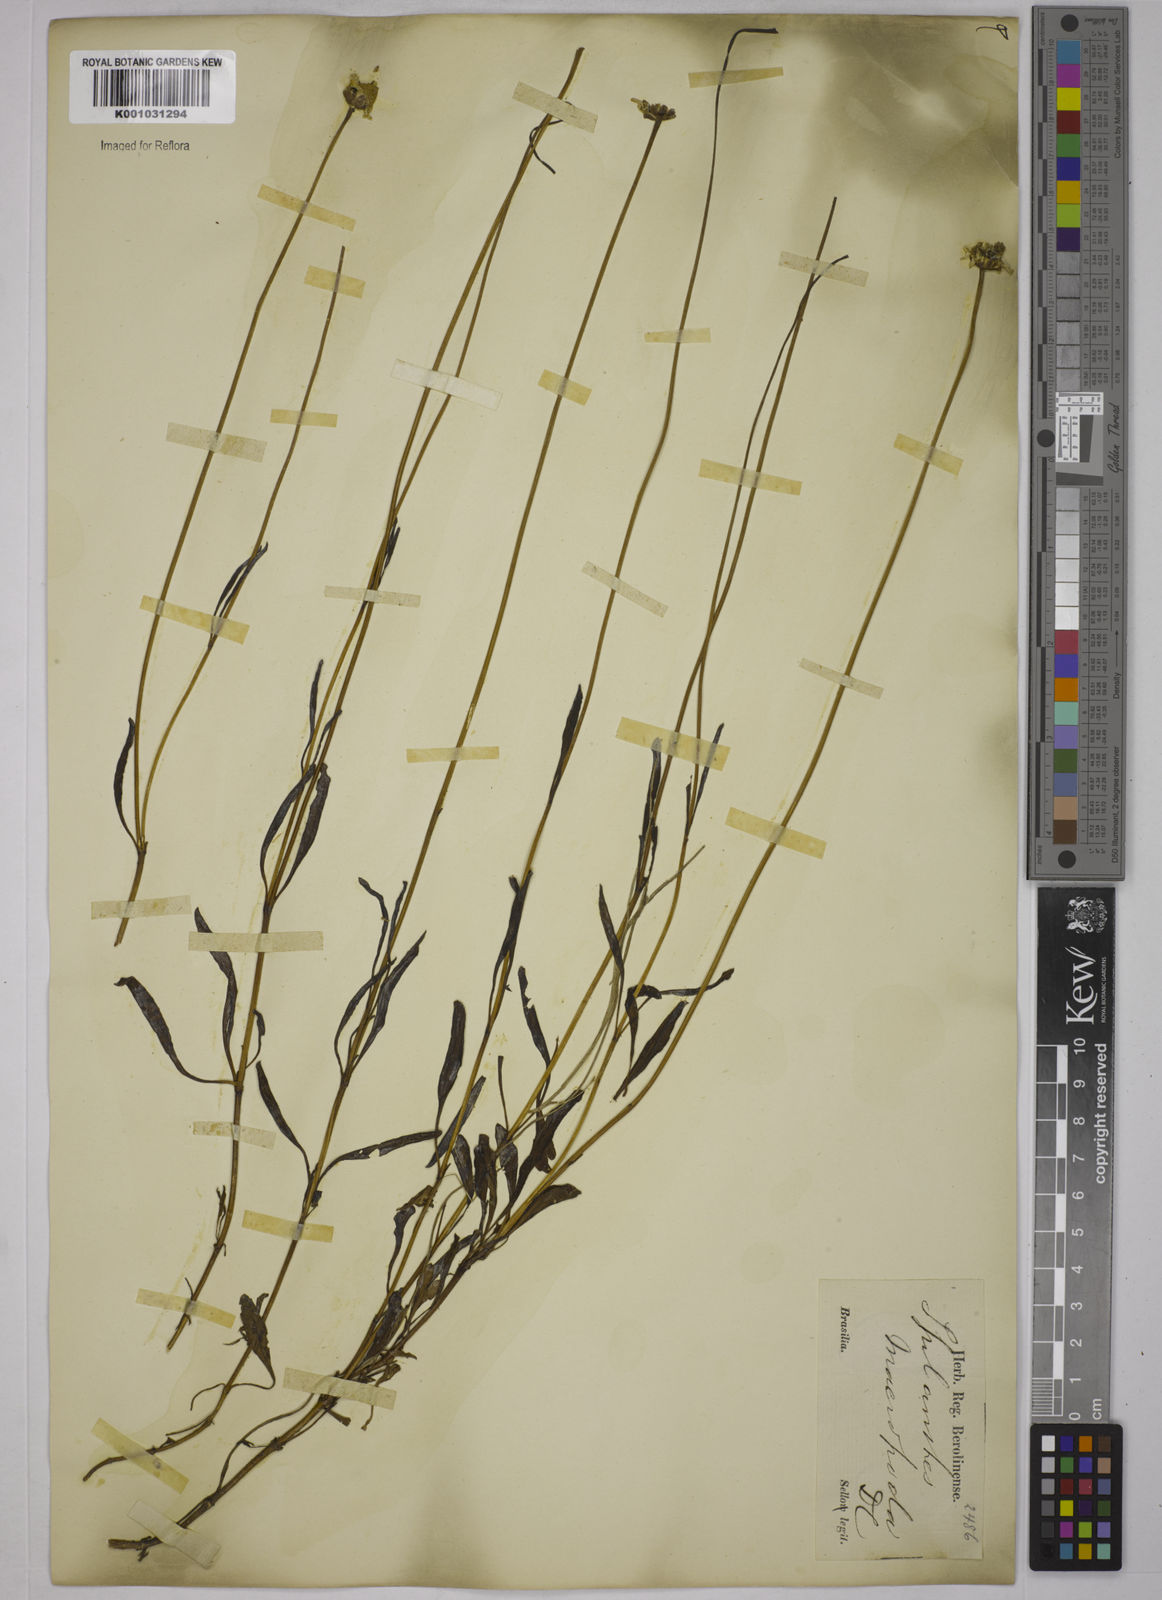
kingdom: Plantae
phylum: Tracheophyta
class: Magnoliopsida
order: Asterales
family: Asteraceae
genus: Acmella
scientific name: Acmella decumbens
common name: Creeping spotflower
